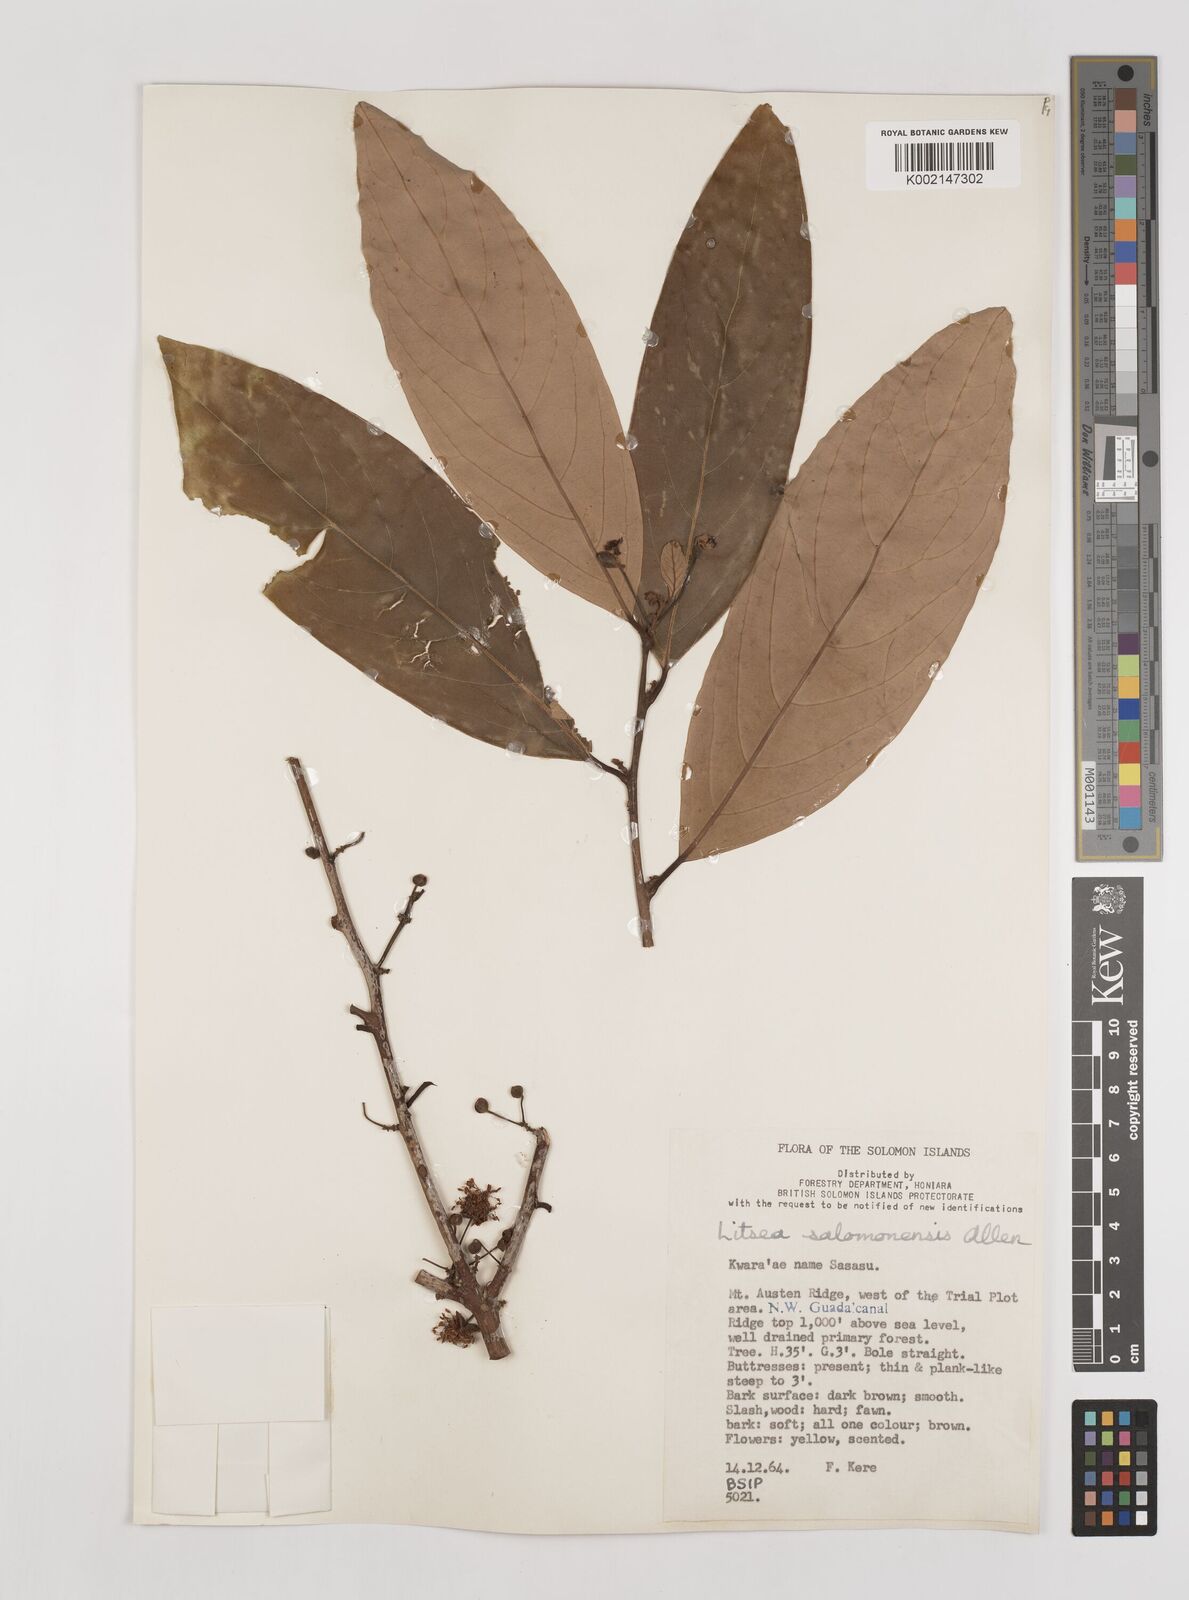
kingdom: Plantae
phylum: Tracheophyta
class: Magnoliopsida
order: Laurales
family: Lauraceae
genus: Litsea
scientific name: Litsea timoriana
